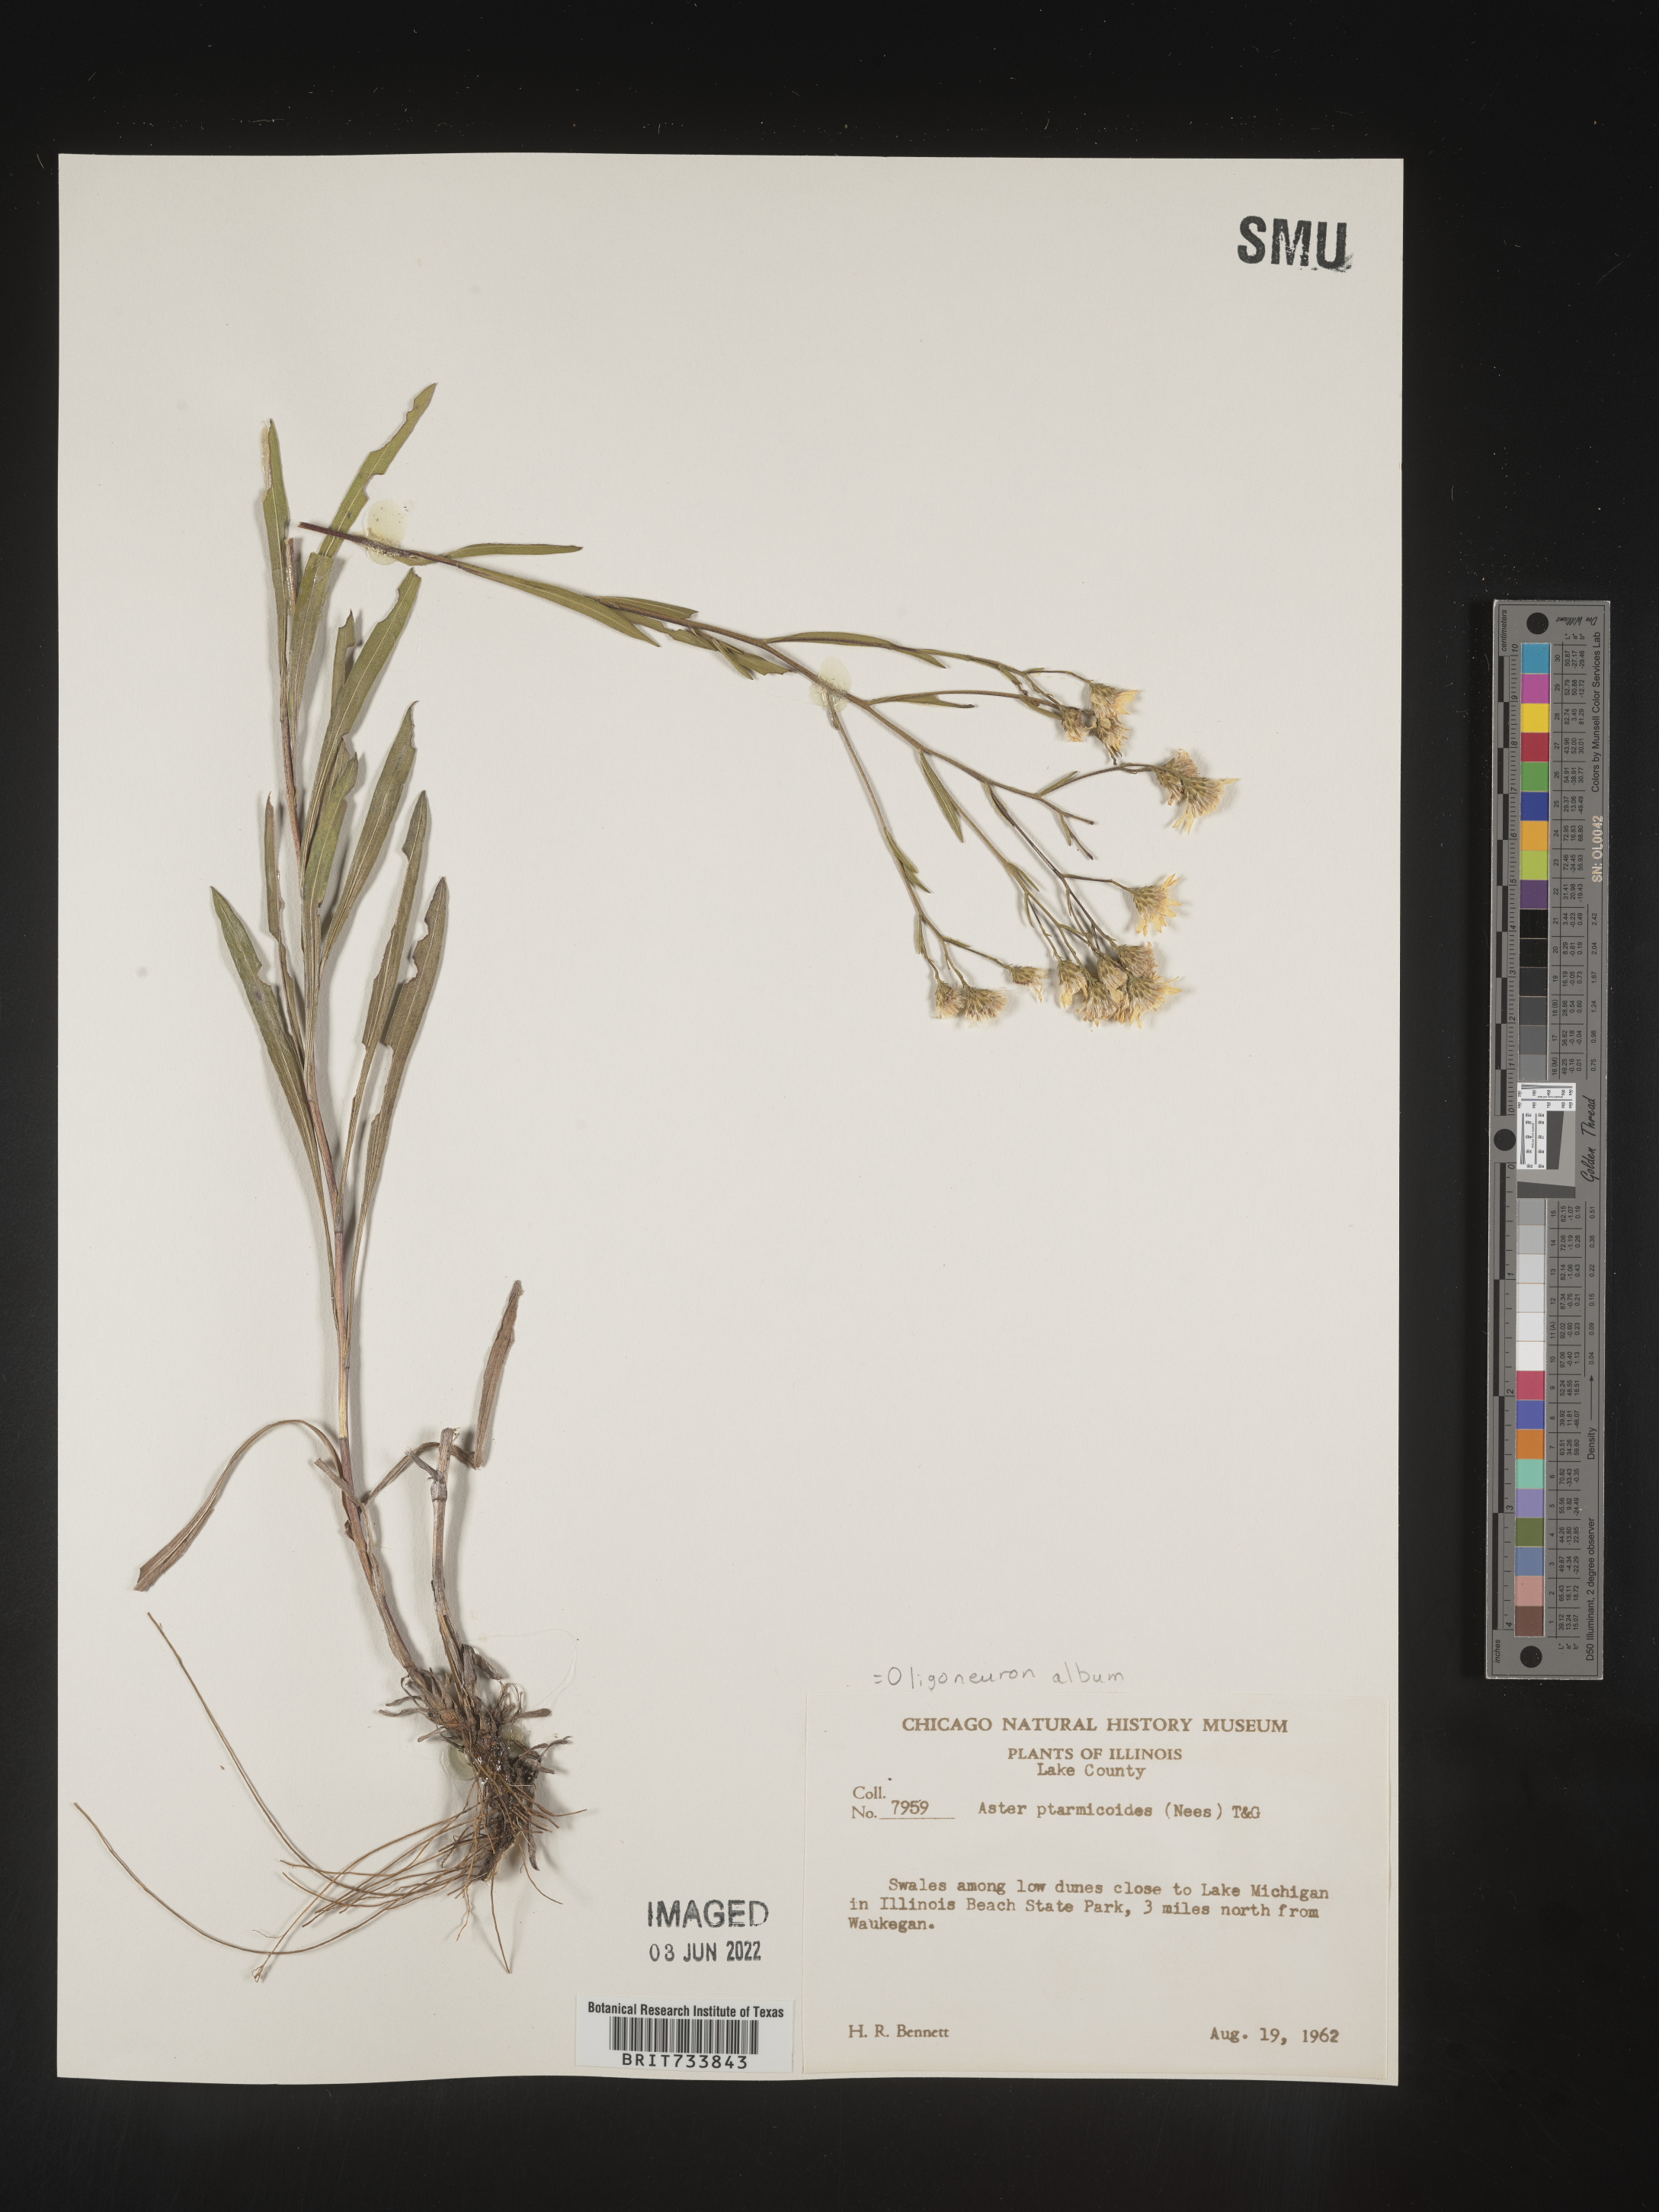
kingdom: Plantae
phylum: Tracheophyta
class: Magnoliopsida
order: Asterales
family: Asteraceae
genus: Solidago
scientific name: Solidago ptarmicoides
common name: White flat-top goldenrod
